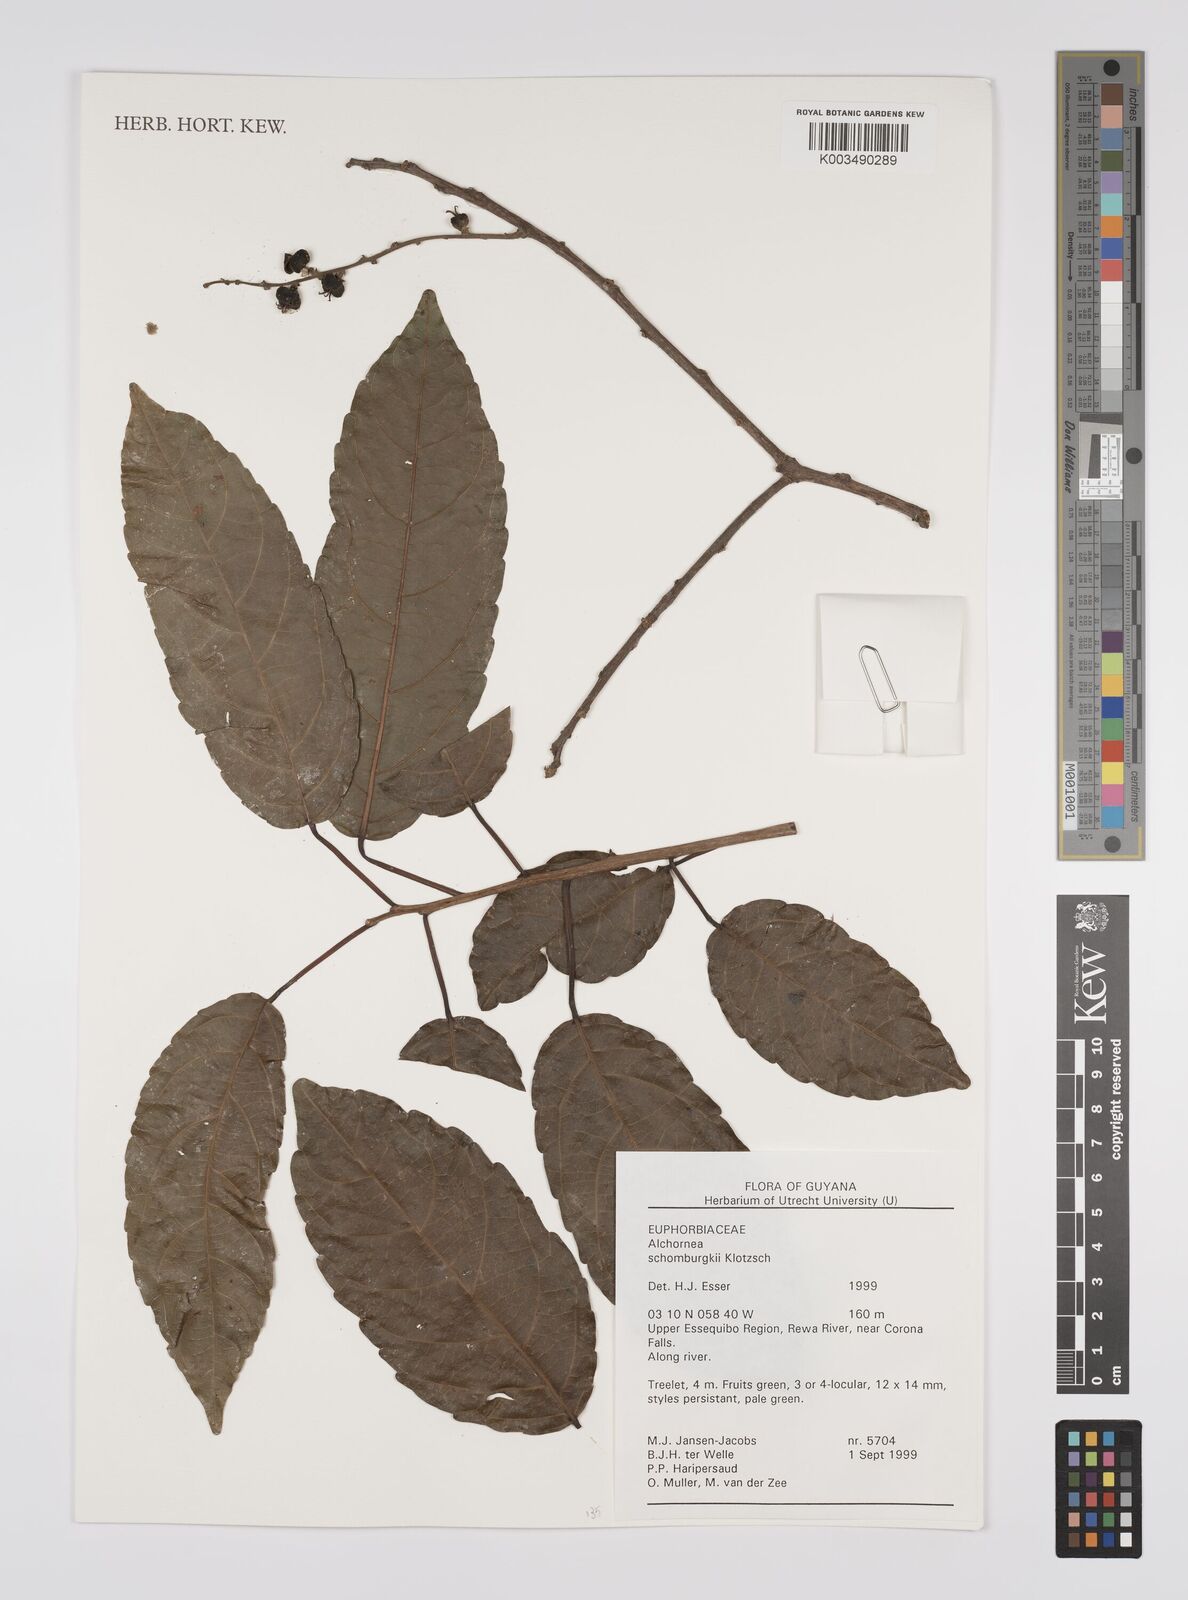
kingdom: Plantae
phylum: Tracheophyta
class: Magnoliopsida
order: Malpighiales
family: Euphorbiaceae
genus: Alchornea
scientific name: Alchornea discolor
